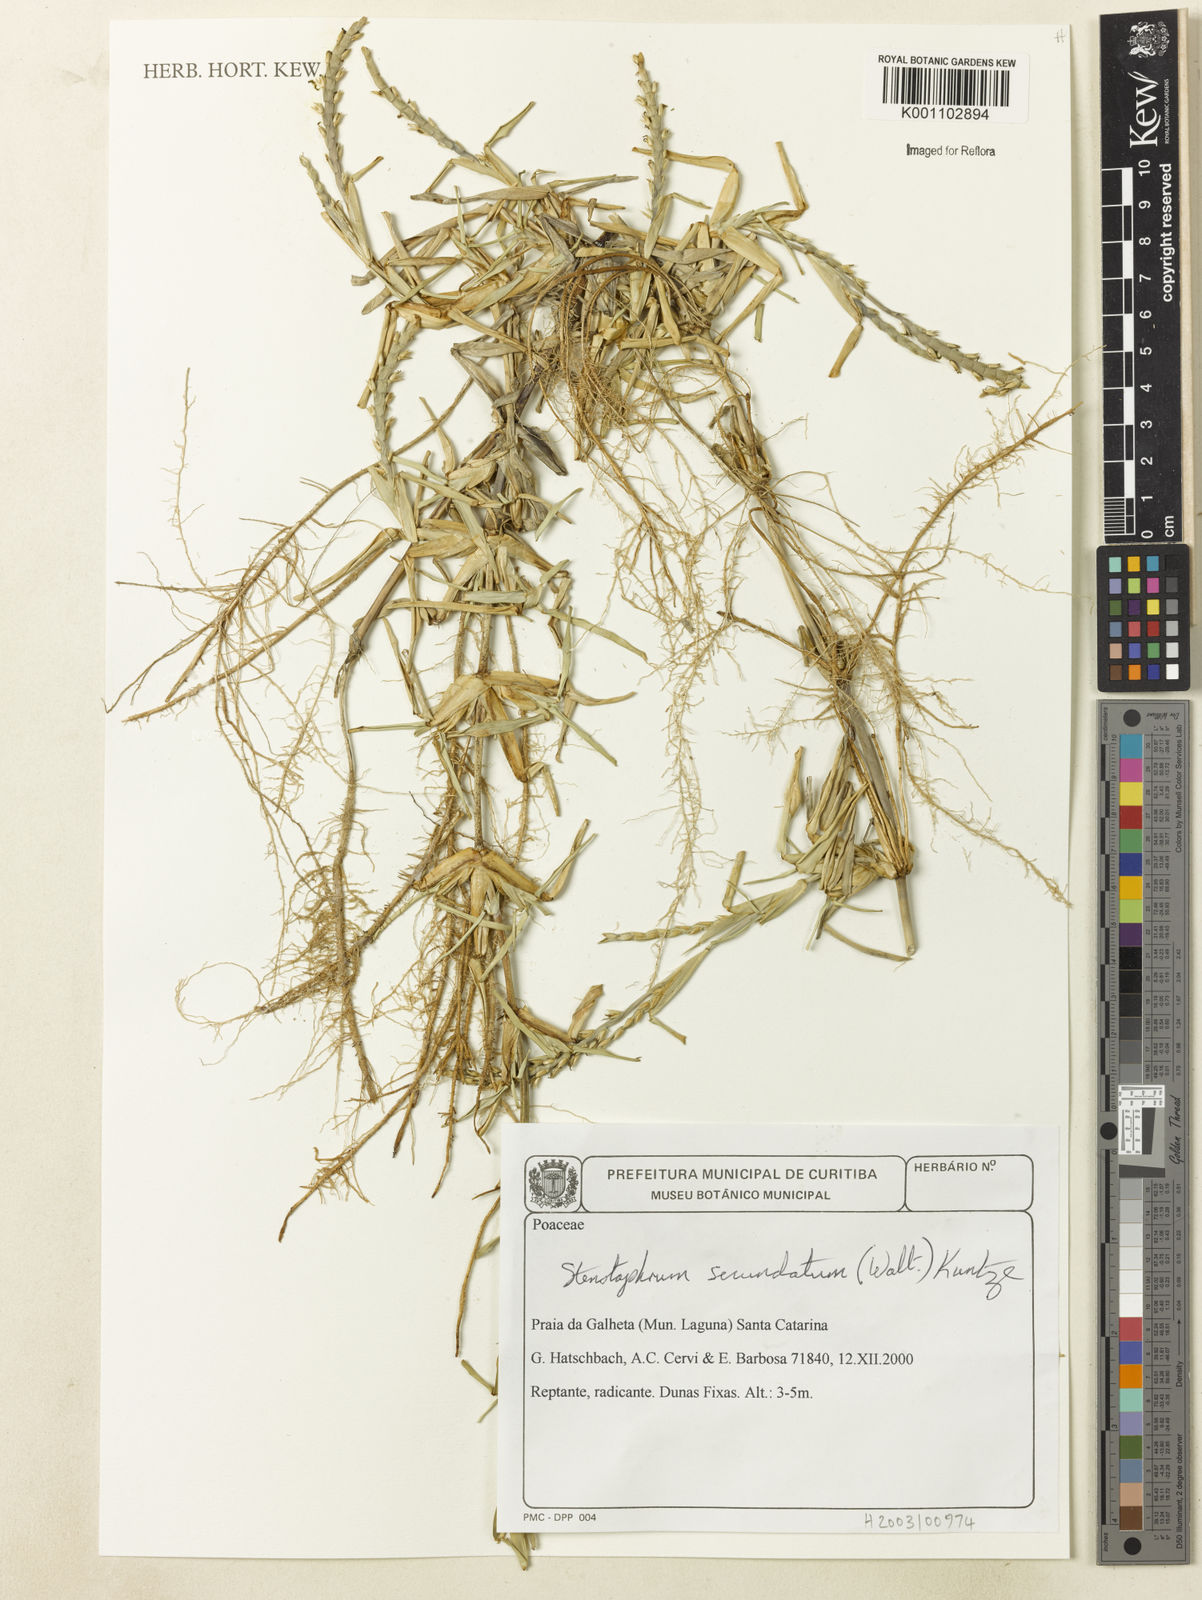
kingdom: Plantae
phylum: Tracheophyta
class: Liliopsida
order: Poales
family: Poaceae
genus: Stenotaphrum
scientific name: Stenotaphrum secundatum
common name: St. augustine grass
